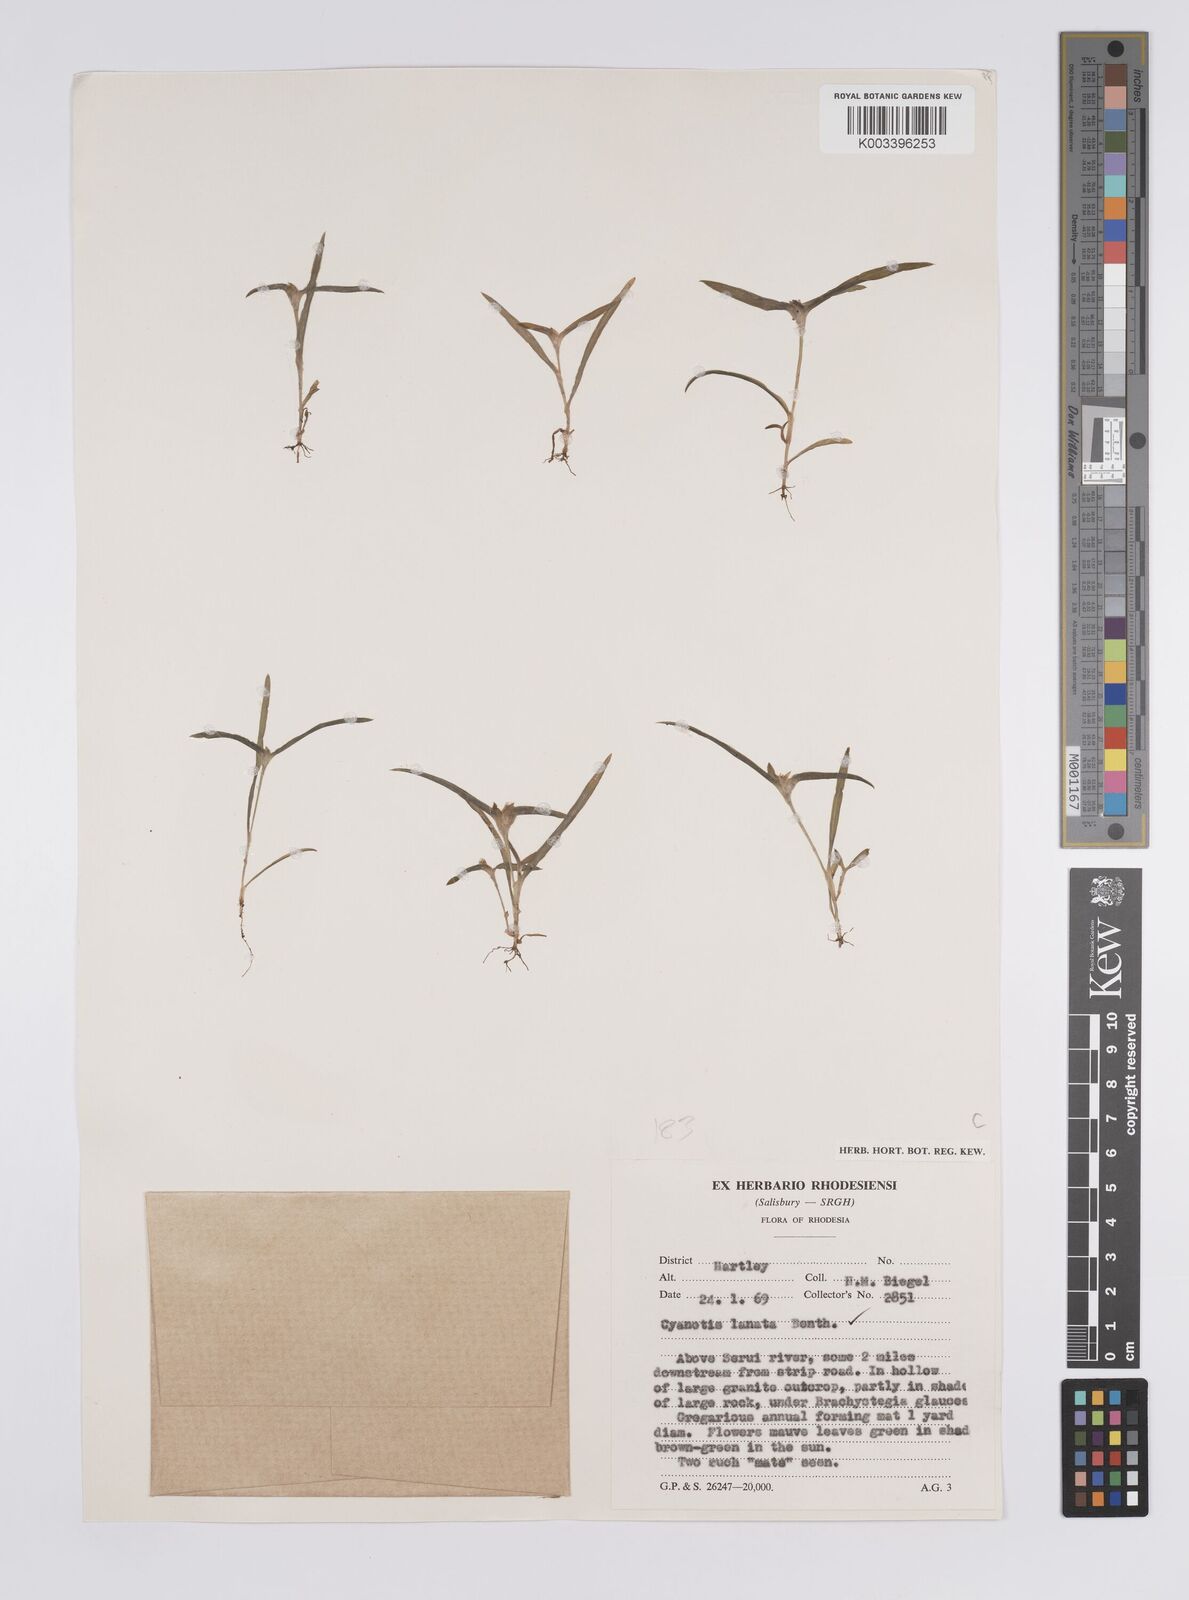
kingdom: Plantae
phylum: Tracheophyta
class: Liliopsida
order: Commelinales
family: Commelinaceae
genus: Cyanotis
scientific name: Cyanotis lanata
